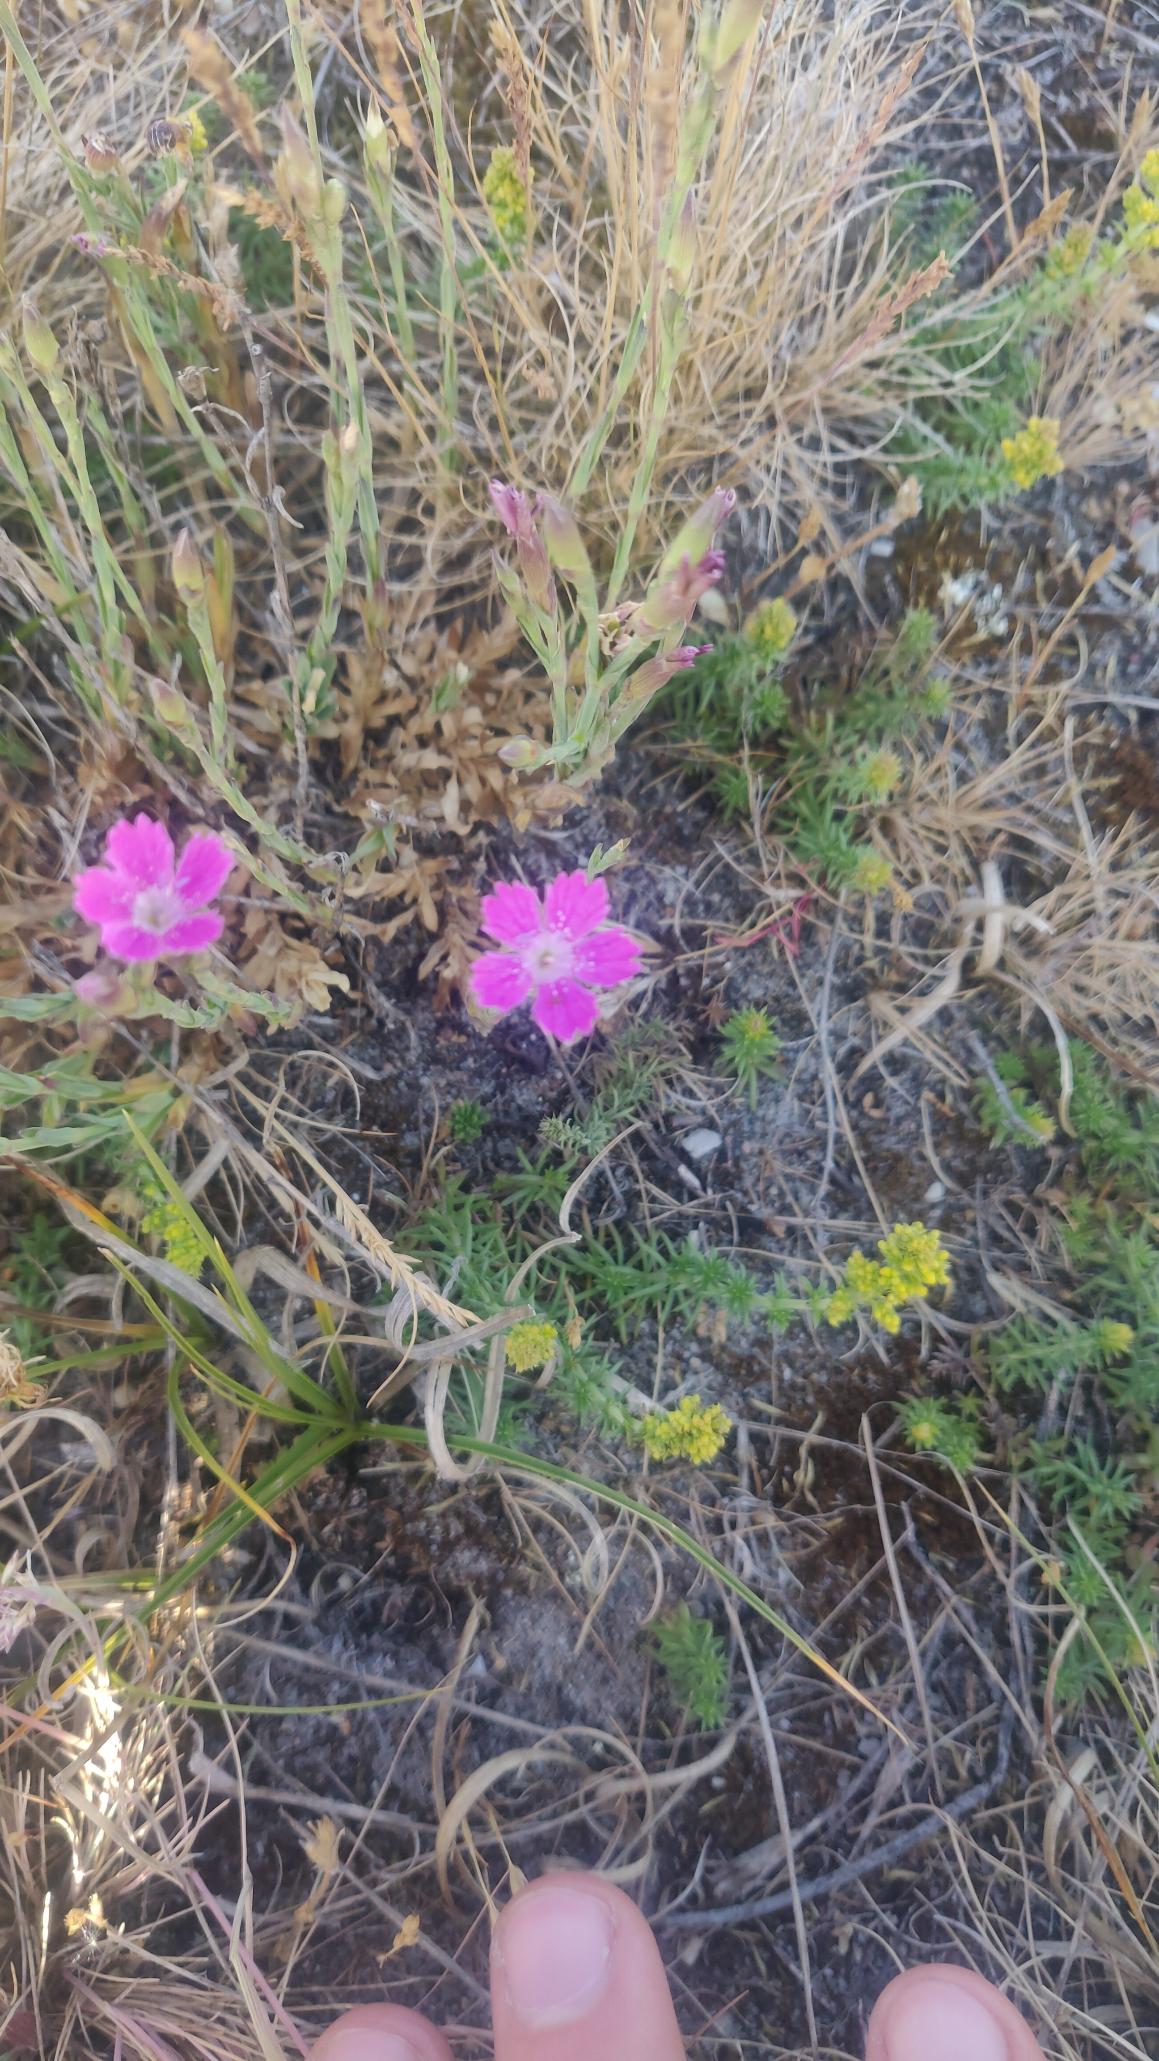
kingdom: Plantae
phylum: Tracheophyta
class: Magnoliopsida
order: Caryophyllales
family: Caryophyllaceae
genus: Dianthus
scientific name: Dianthus deltoides
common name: Bakke-nellike
